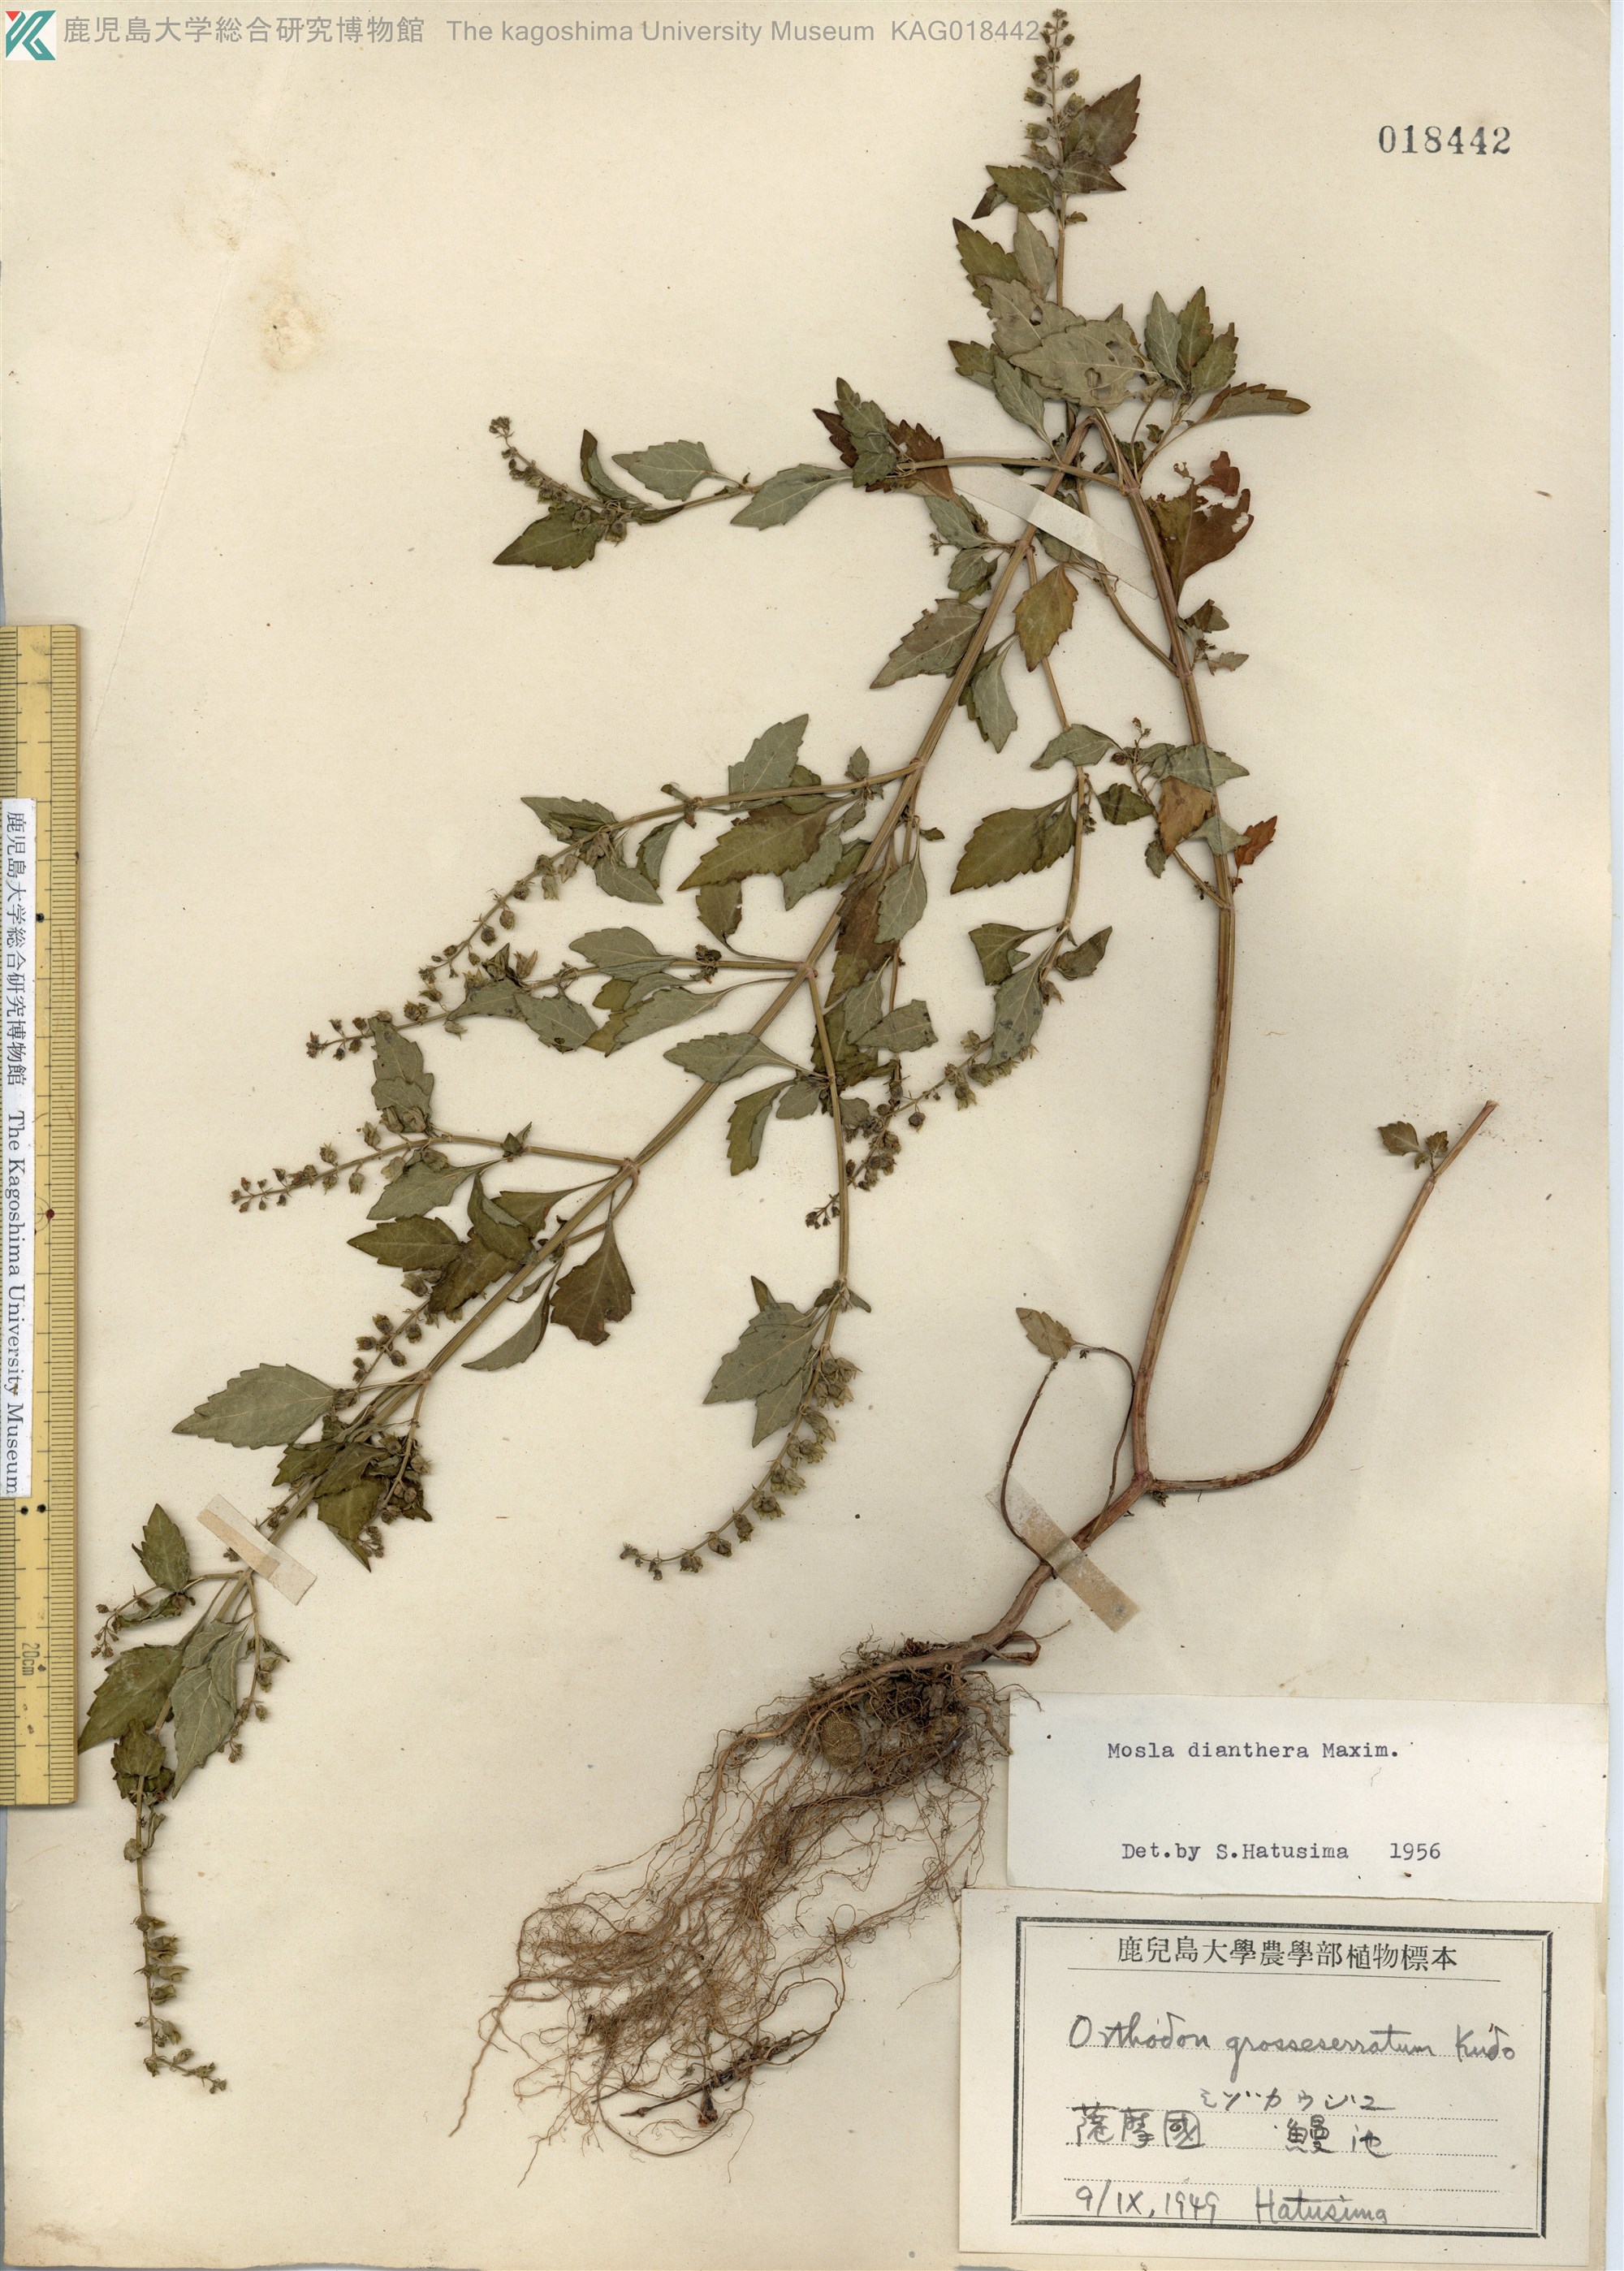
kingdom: Plantae
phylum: Tracheophyta
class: Magnoliopsida
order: Lamiales
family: Lamiaceae
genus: Mosla
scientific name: Mosla dianthera
